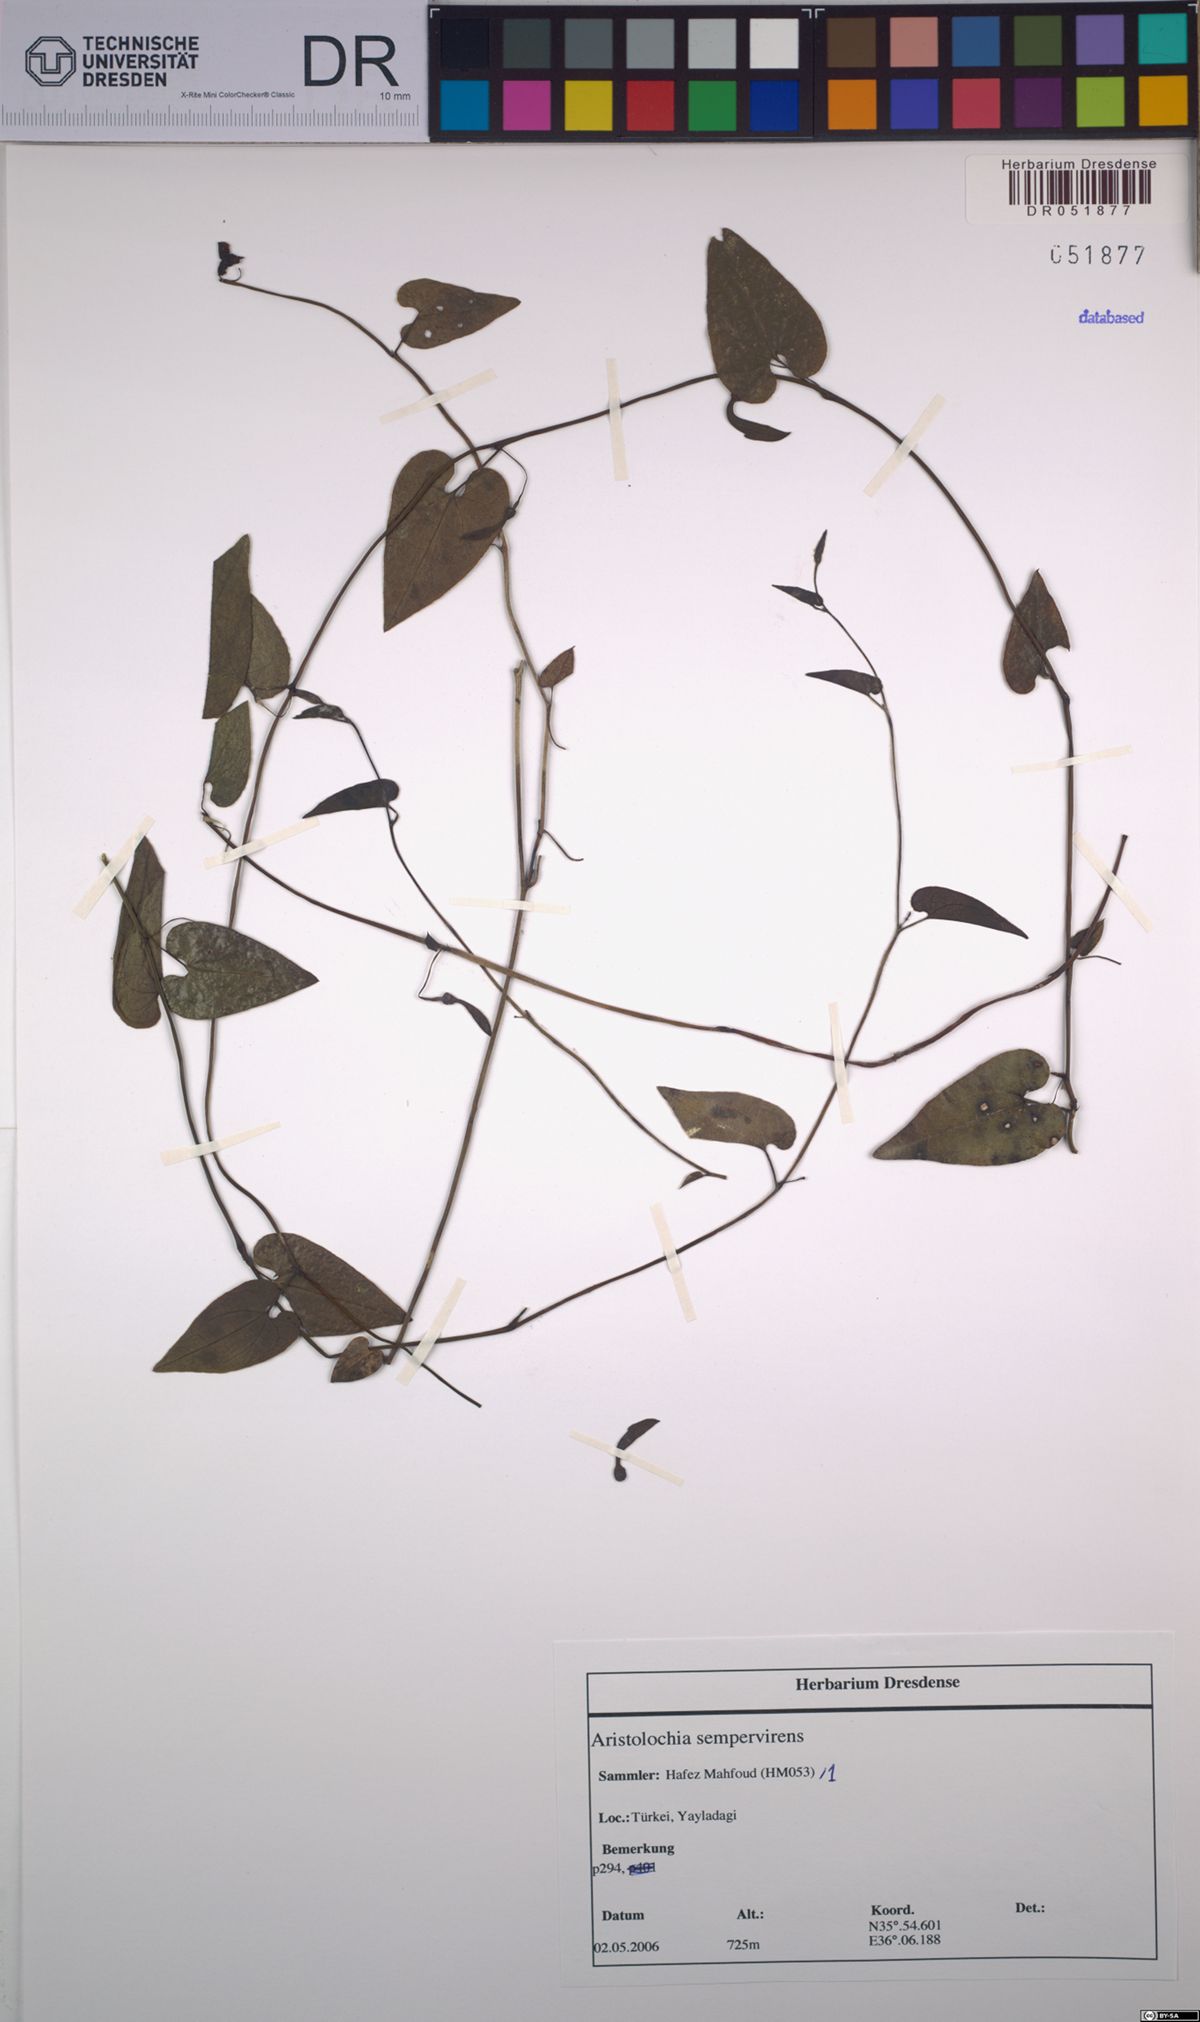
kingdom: Plantae
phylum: Tracheophyta
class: Magnoliopsida
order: Piperales
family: Aristolochiaceae
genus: Aristolochia
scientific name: Aristolochia sempervirens
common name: Long birthwort
